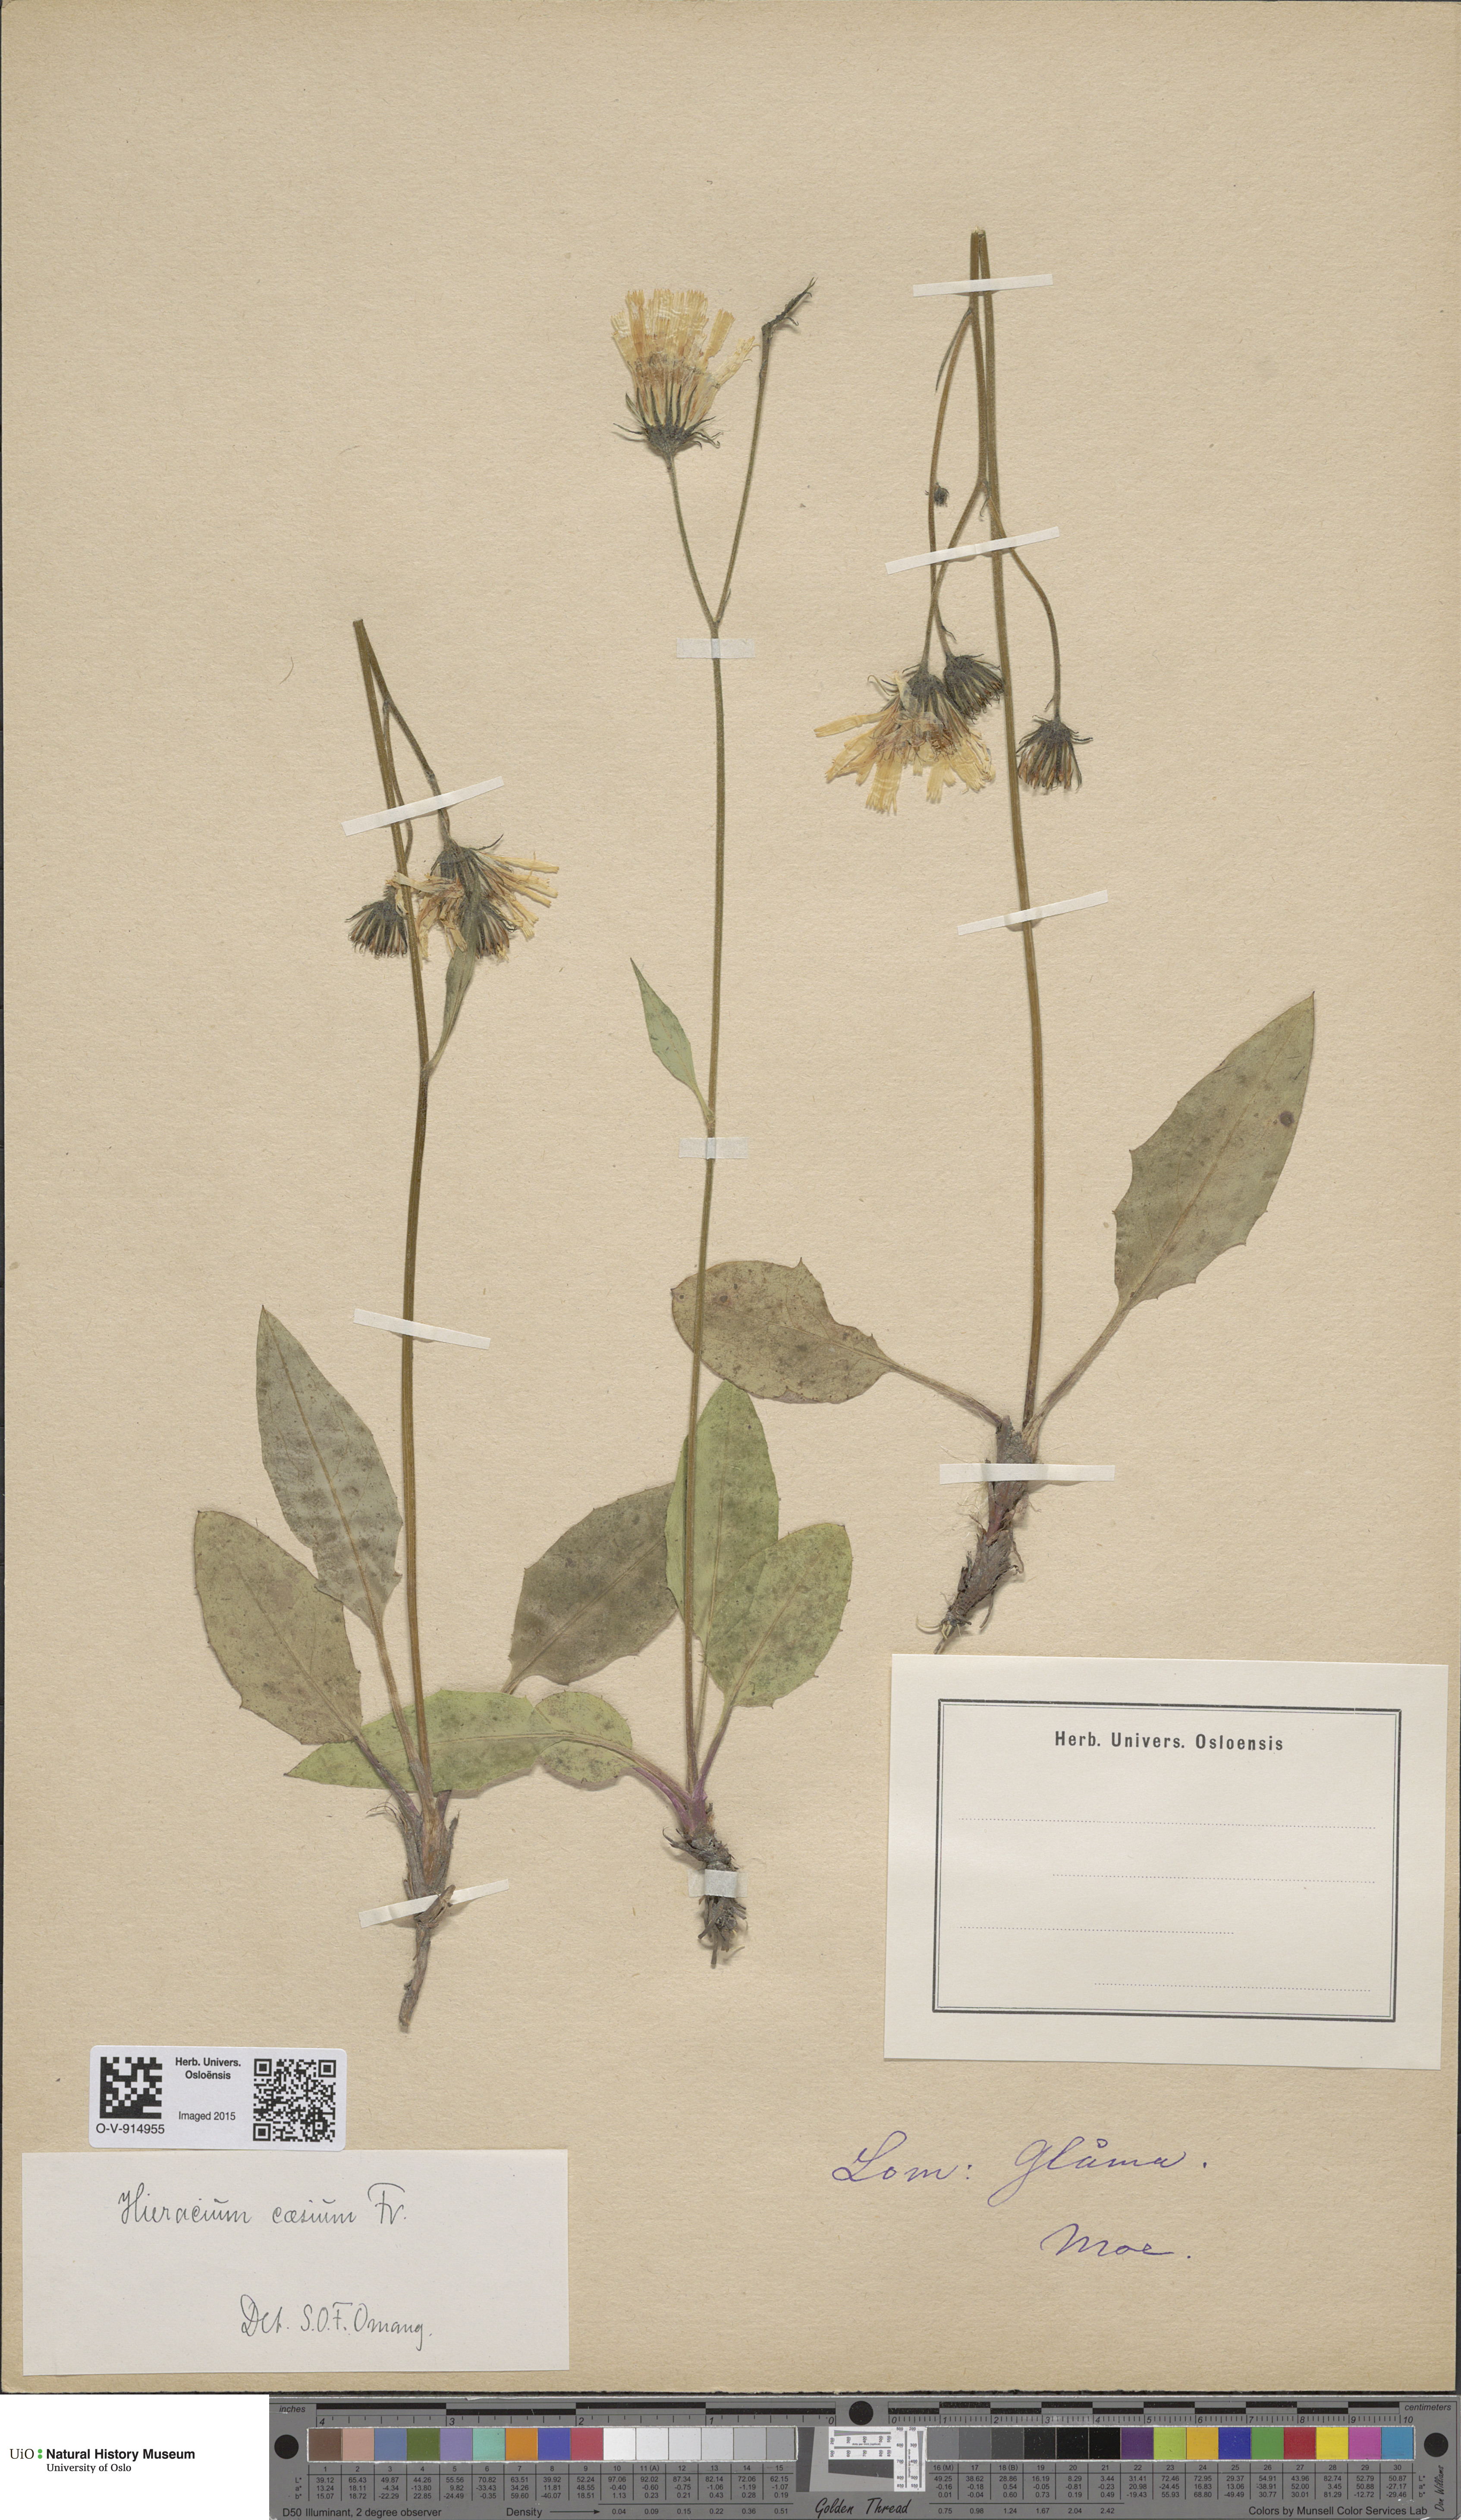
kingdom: Plantae
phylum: Tracheophyta
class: Magnoliopsida
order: Asterales
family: Asteraceae
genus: Hieracium
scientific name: Hieracium caesium
